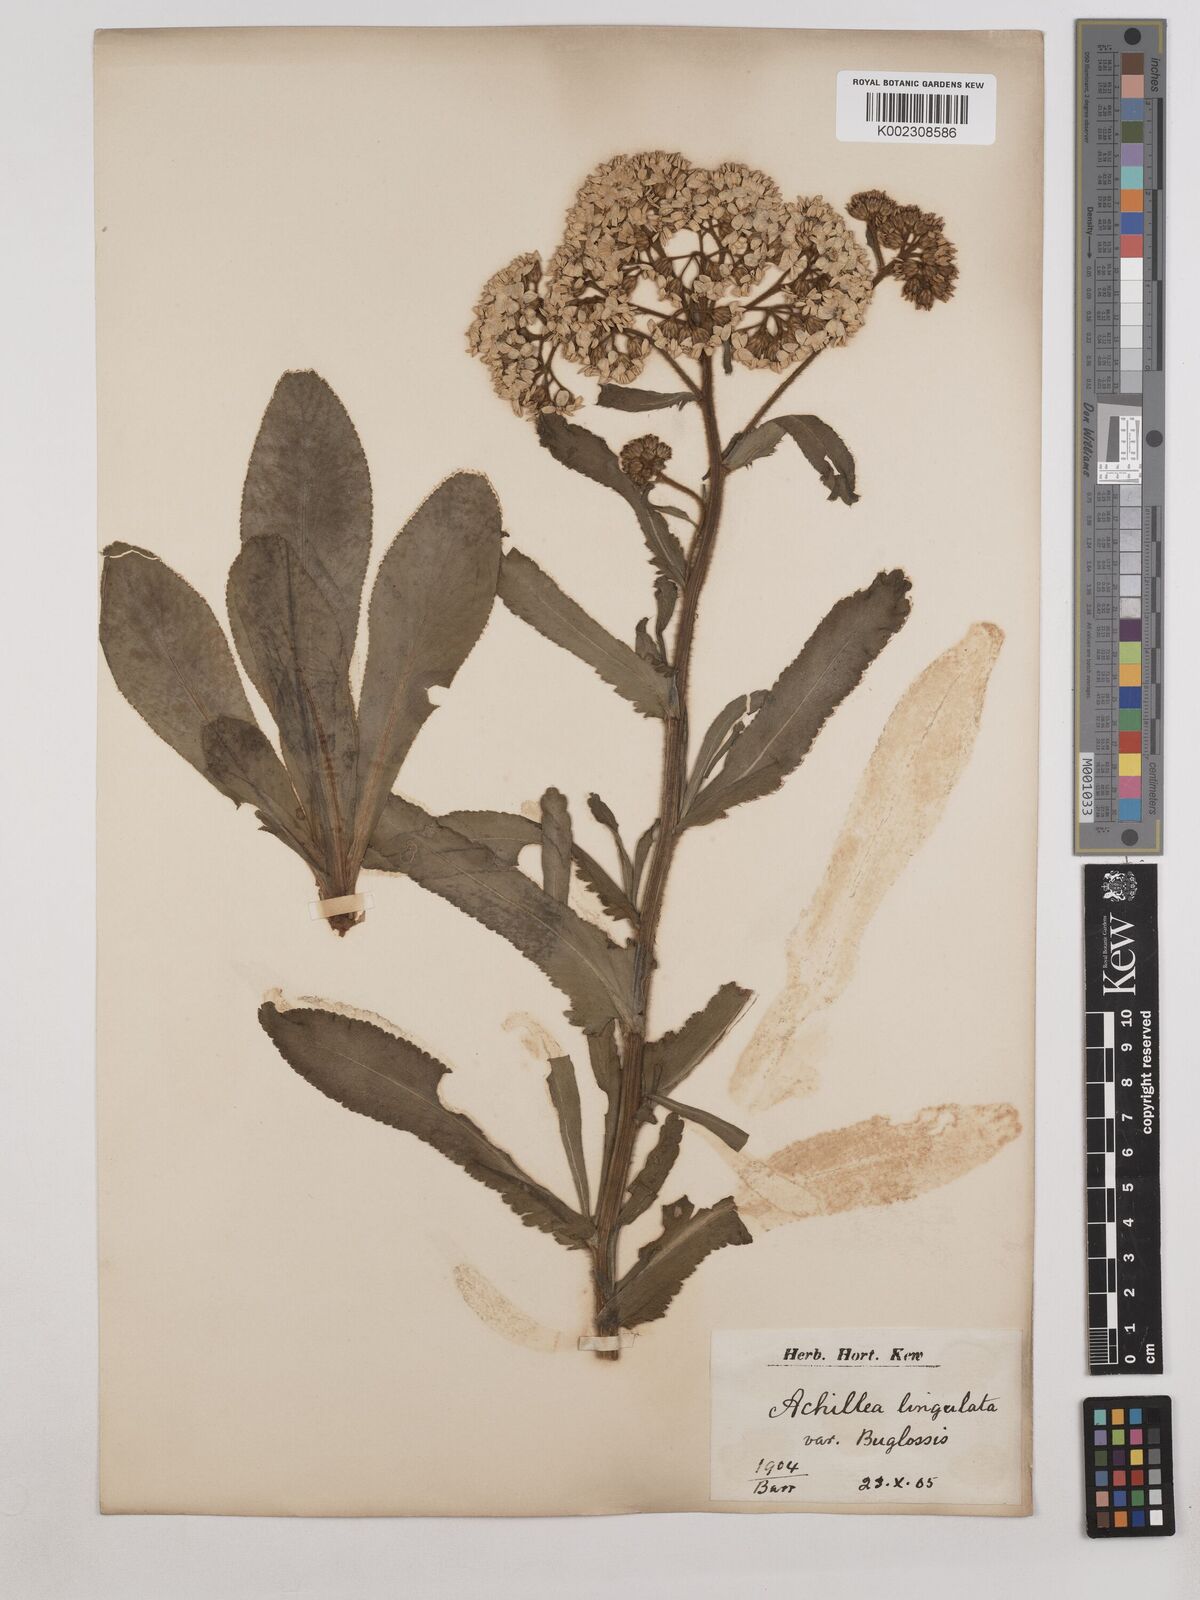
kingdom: Plantae
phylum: Tracheophyta
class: Magnoliopsida
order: Asterales
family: Asteraceae
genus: Achillea
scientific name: Achillea lingulata
